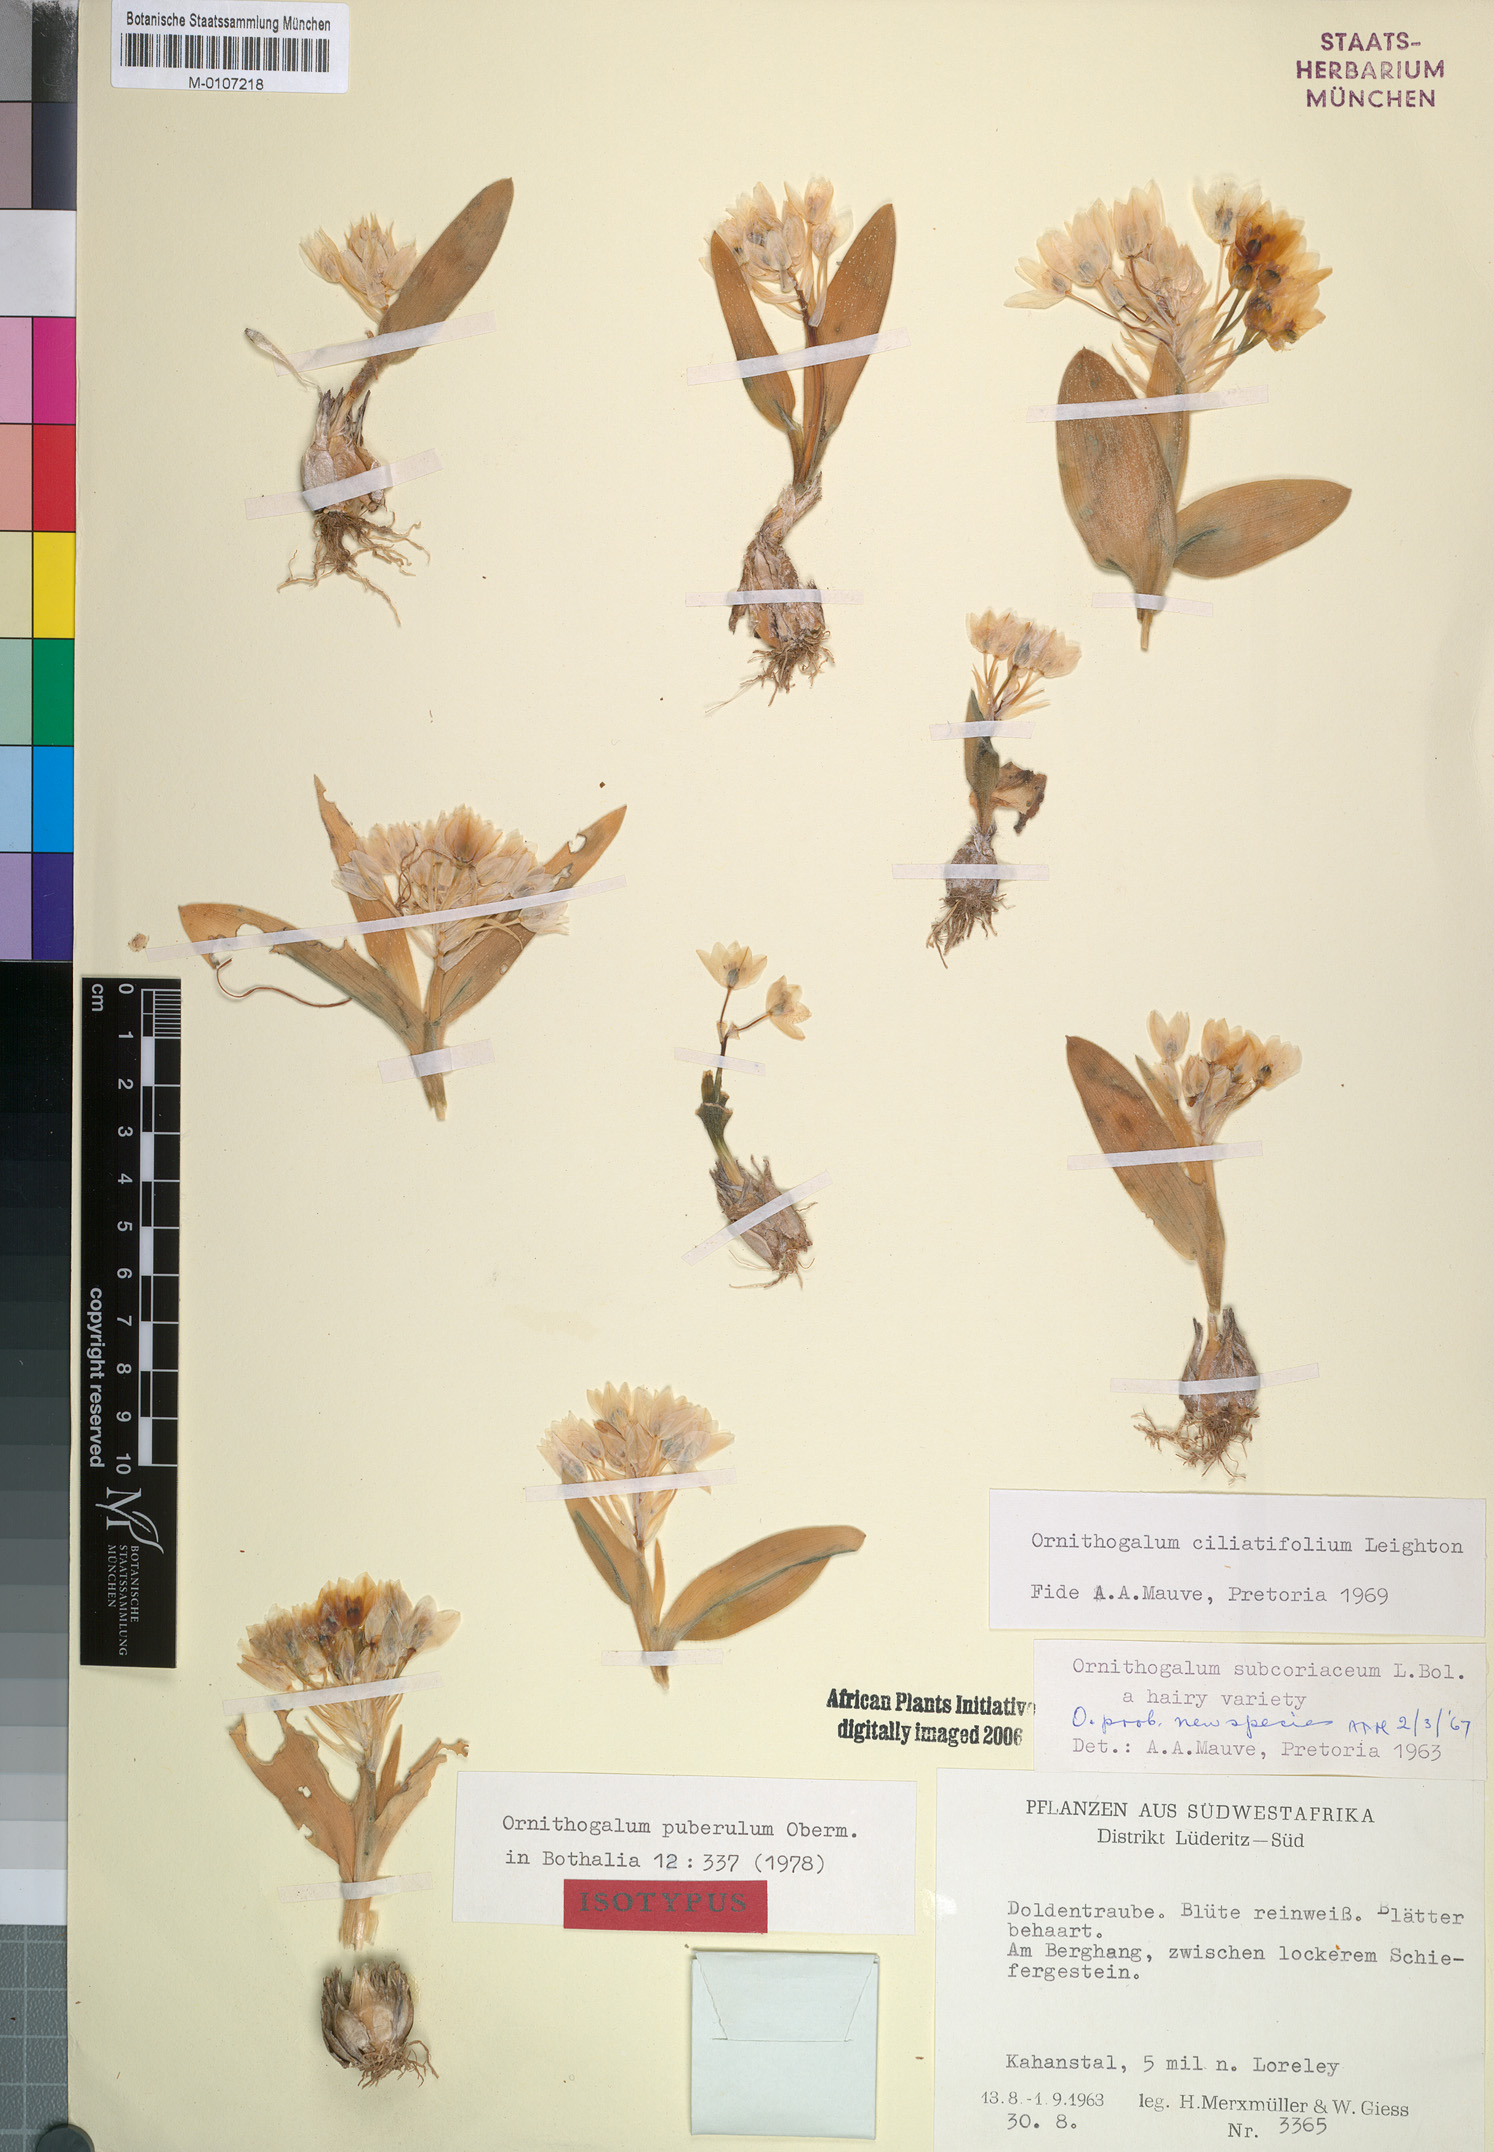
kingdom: Plantae
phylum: Tracheophyta
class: Liliopsida
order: Asparagales
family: Asparagaceae
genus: Ornithogalum
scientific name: Ornithogalum puberulum
